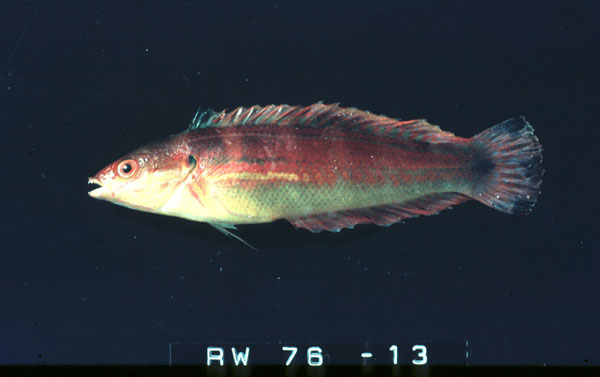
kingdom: Animalia
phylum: Chordata
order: Perciformes
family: Labridae
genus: Coris
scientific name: Coris caudimacula
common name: Spottail coris
